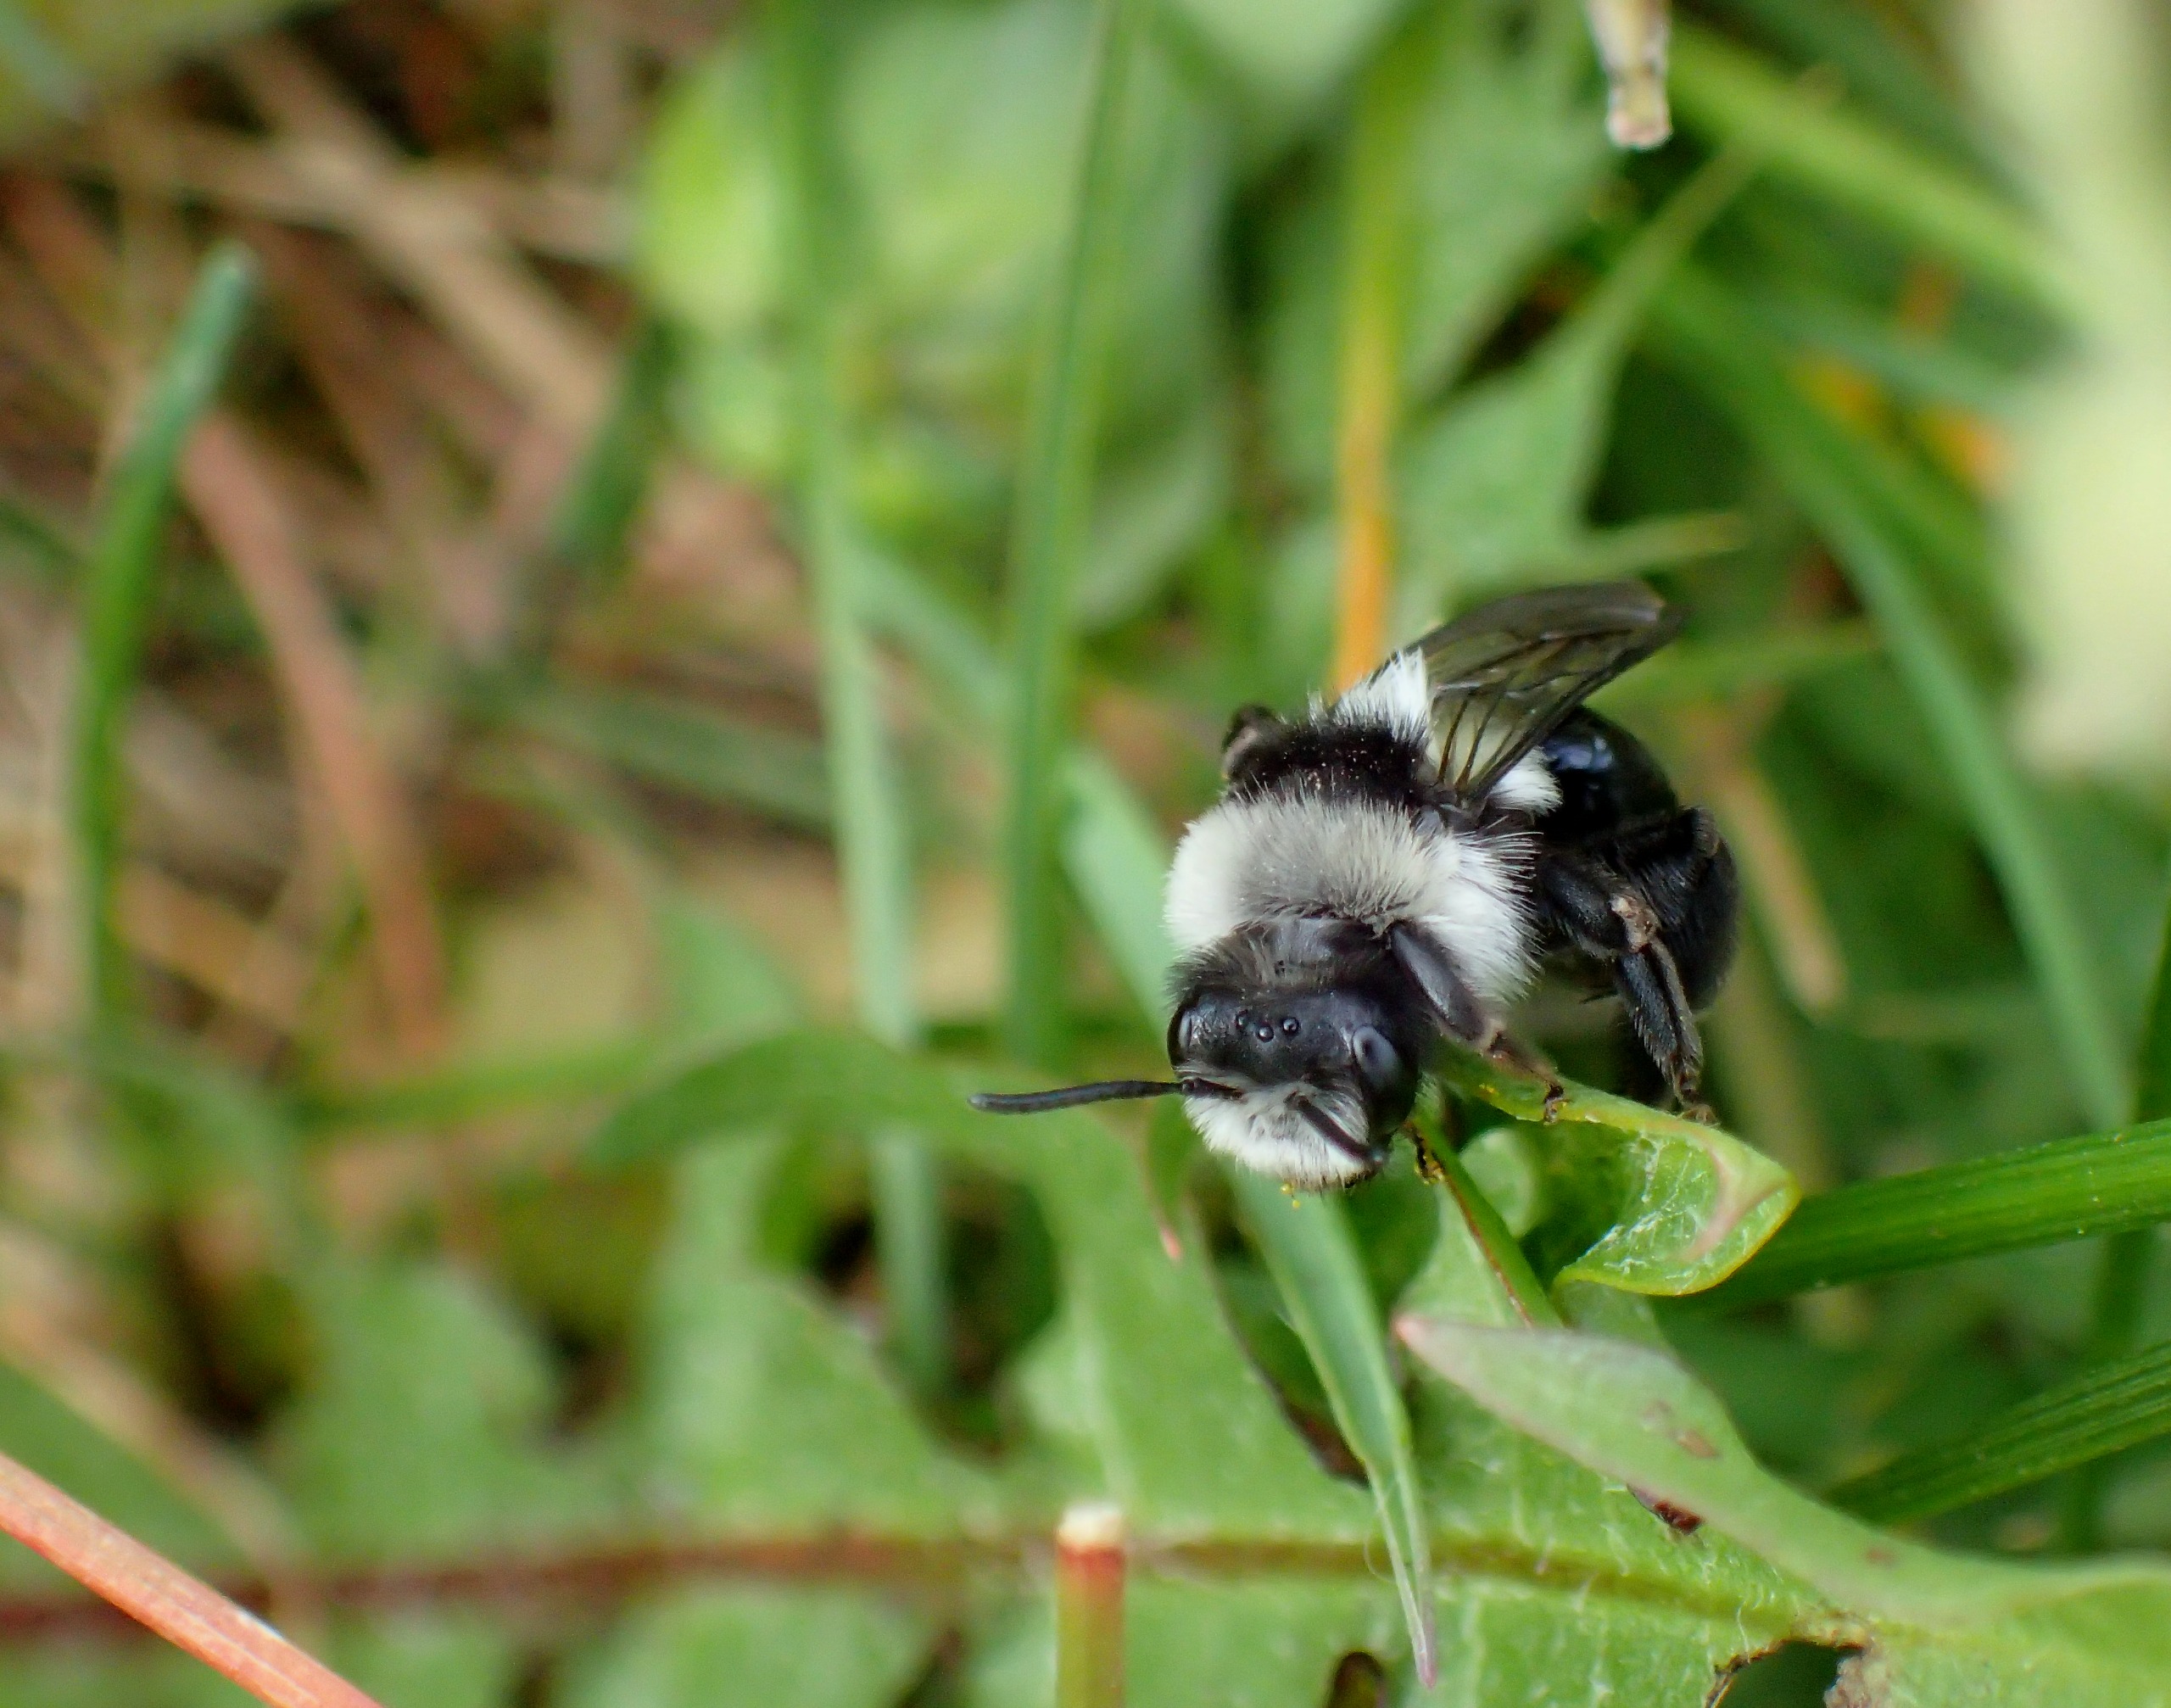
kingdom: Animalia
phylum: Arthropoda
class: Insecta
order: Hymenoptera
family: Andrenidae
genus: Andrena
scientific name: Andrena cineraria
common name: Sorthvid jordbi
